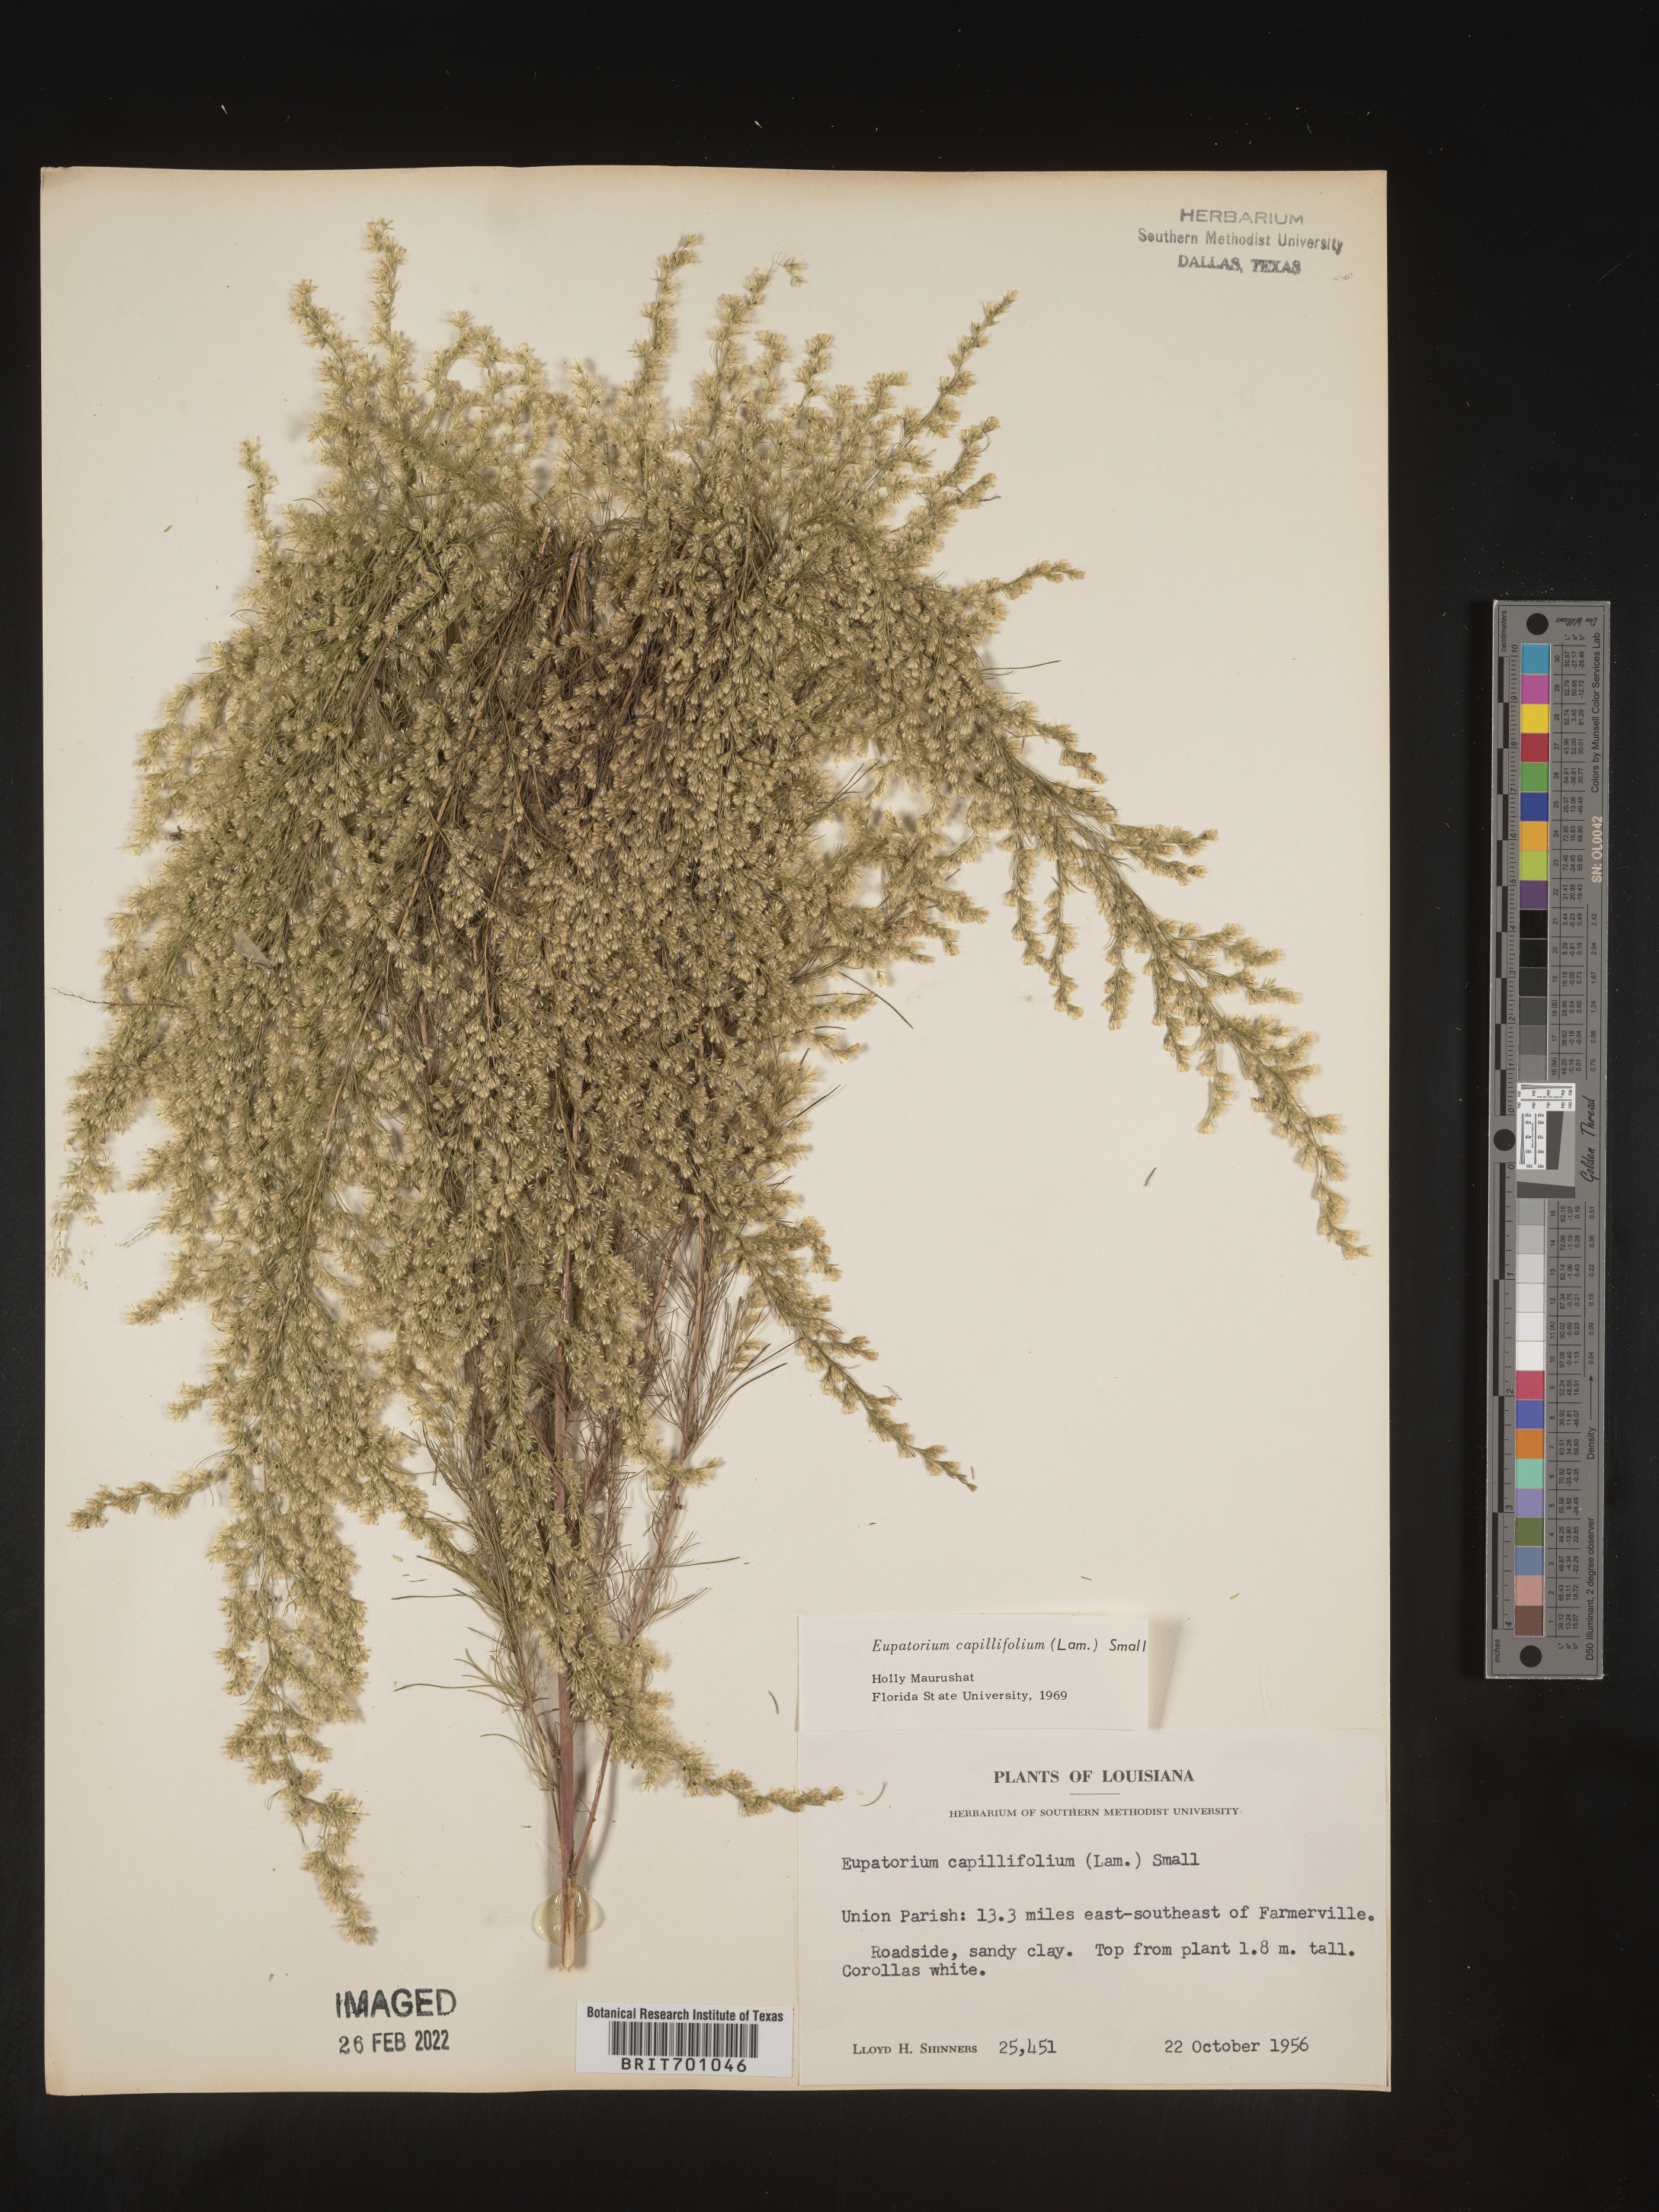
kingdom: Plantae
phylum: Tracheophyta
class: Magnoliopsida
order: Asterales
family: Asteraceae
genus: Eupatorium
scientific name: Eupatorium capillifolium
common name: Dog-fennel
